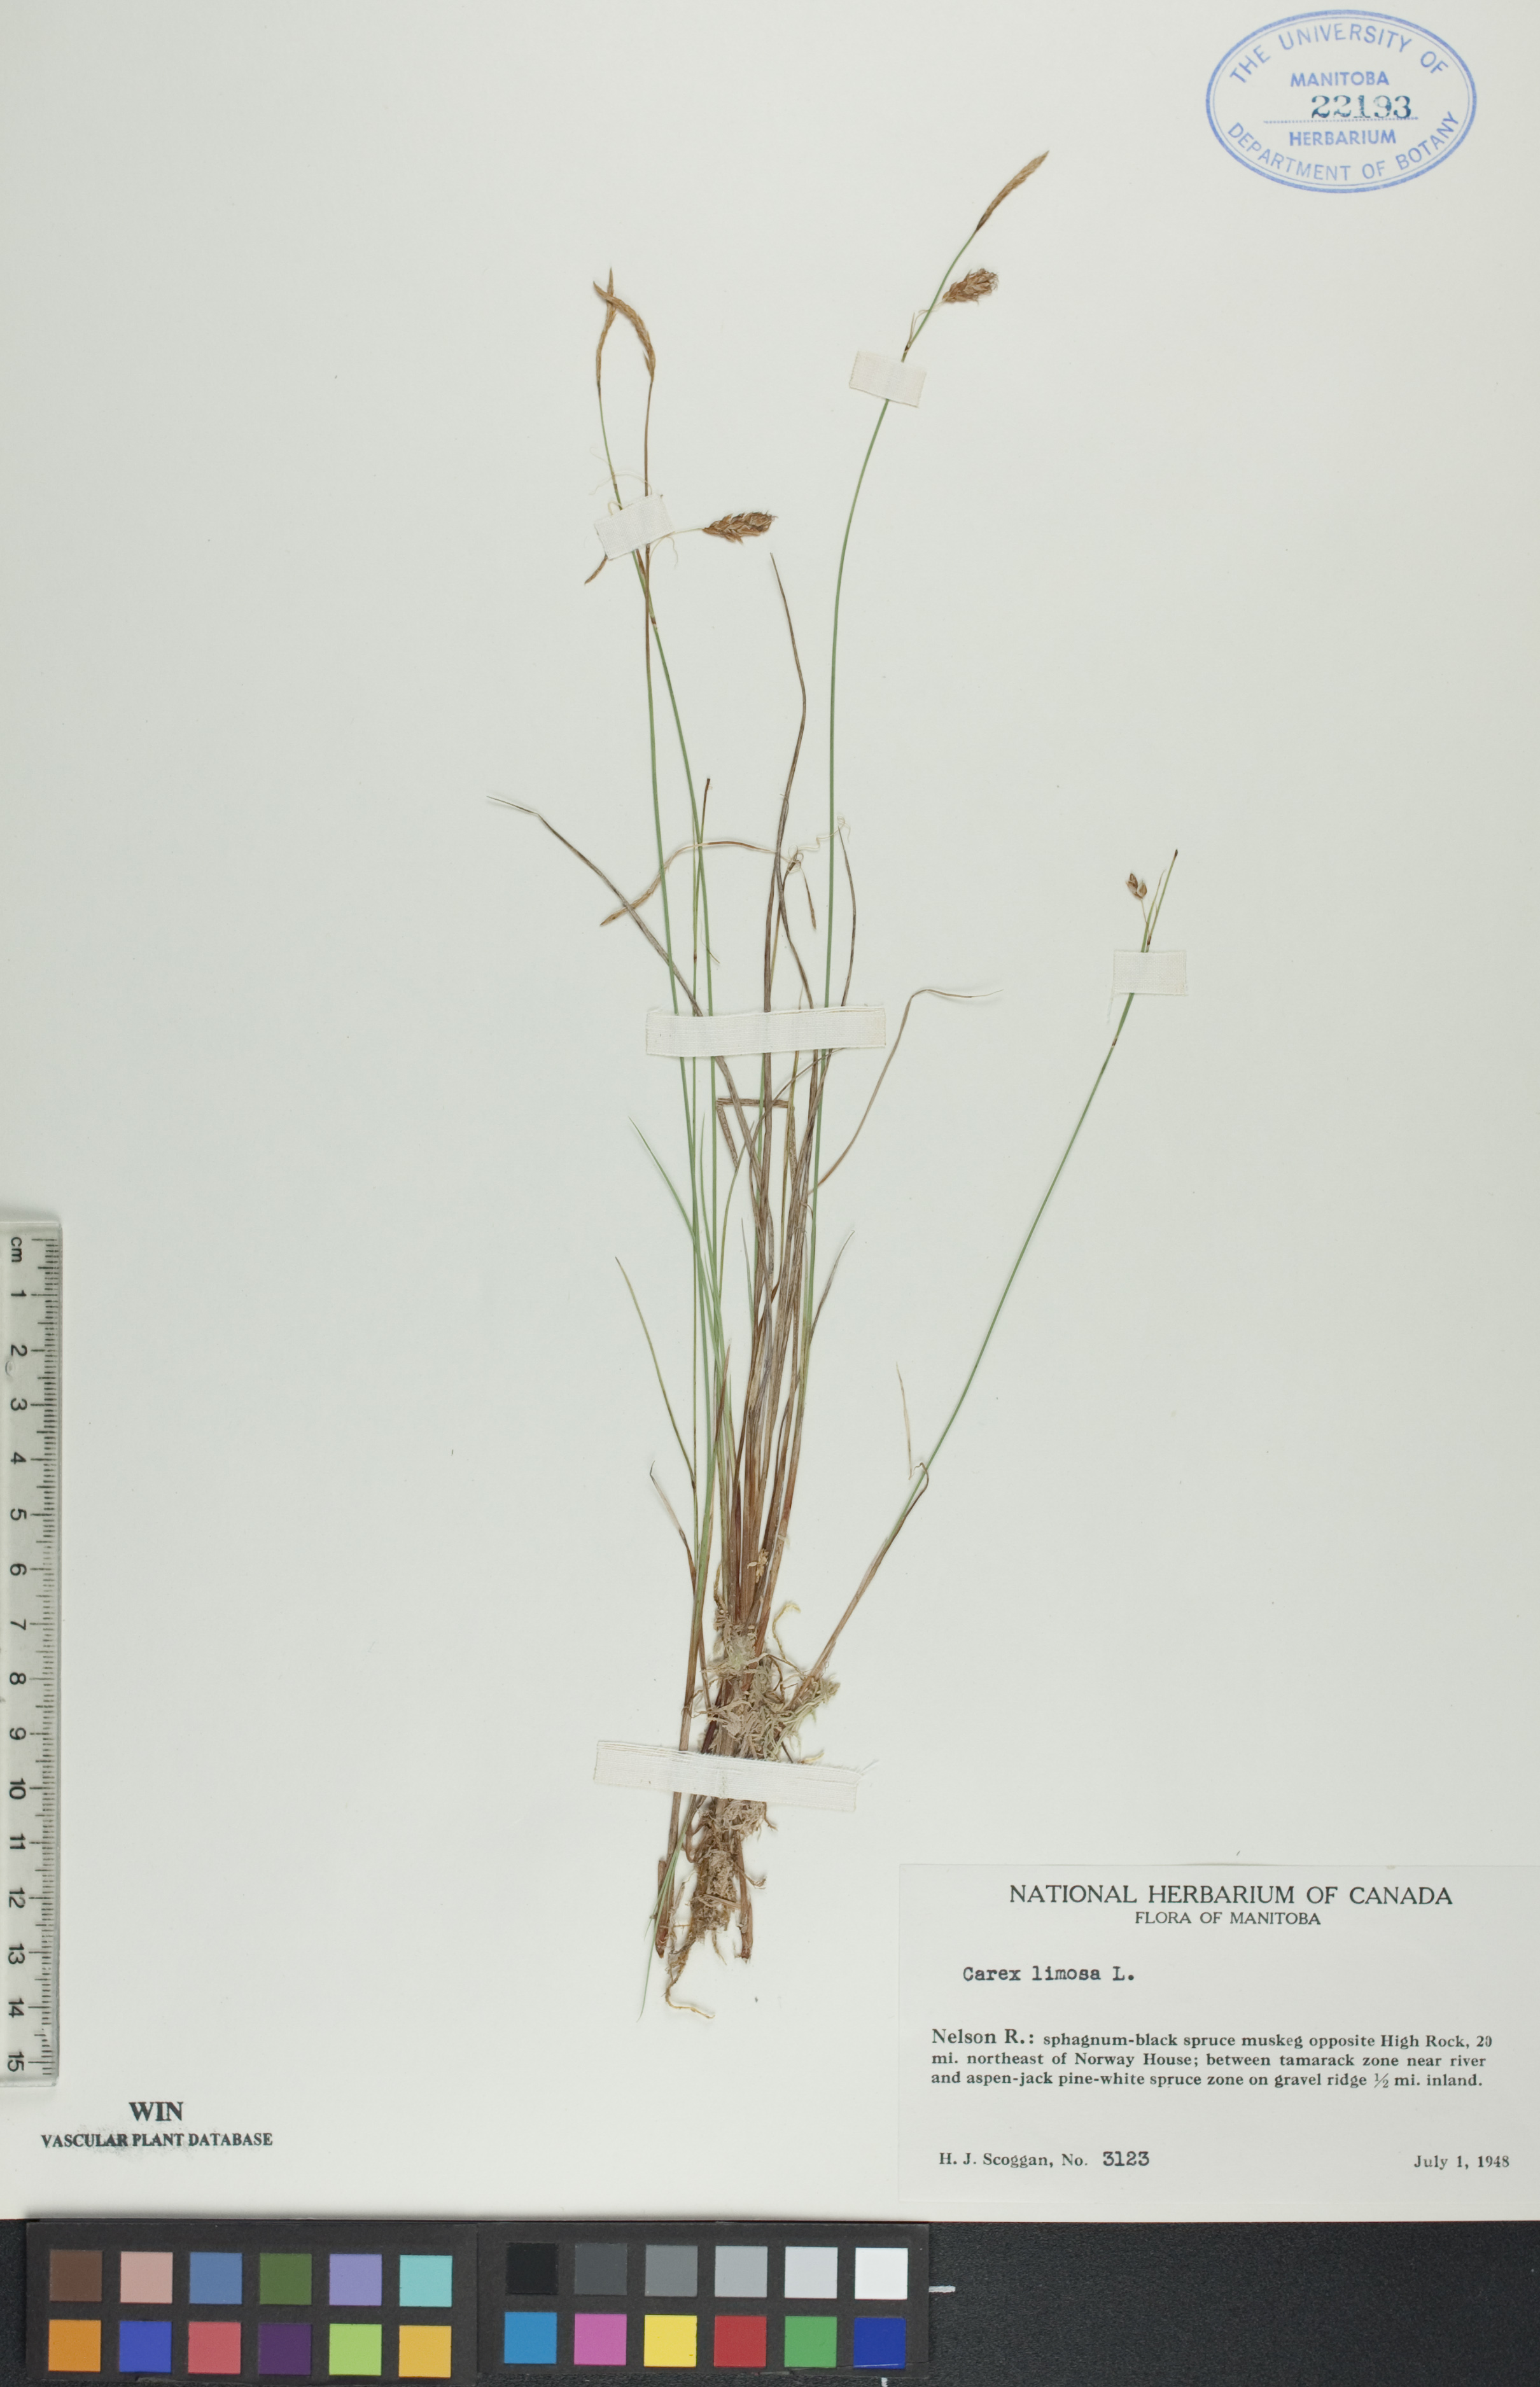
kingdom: Plantae
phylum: Tracheophyta
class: Liliopsida
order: Poales
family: Cyperaceae
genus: Carex
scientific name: Carex limosa
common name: Bog sedge
